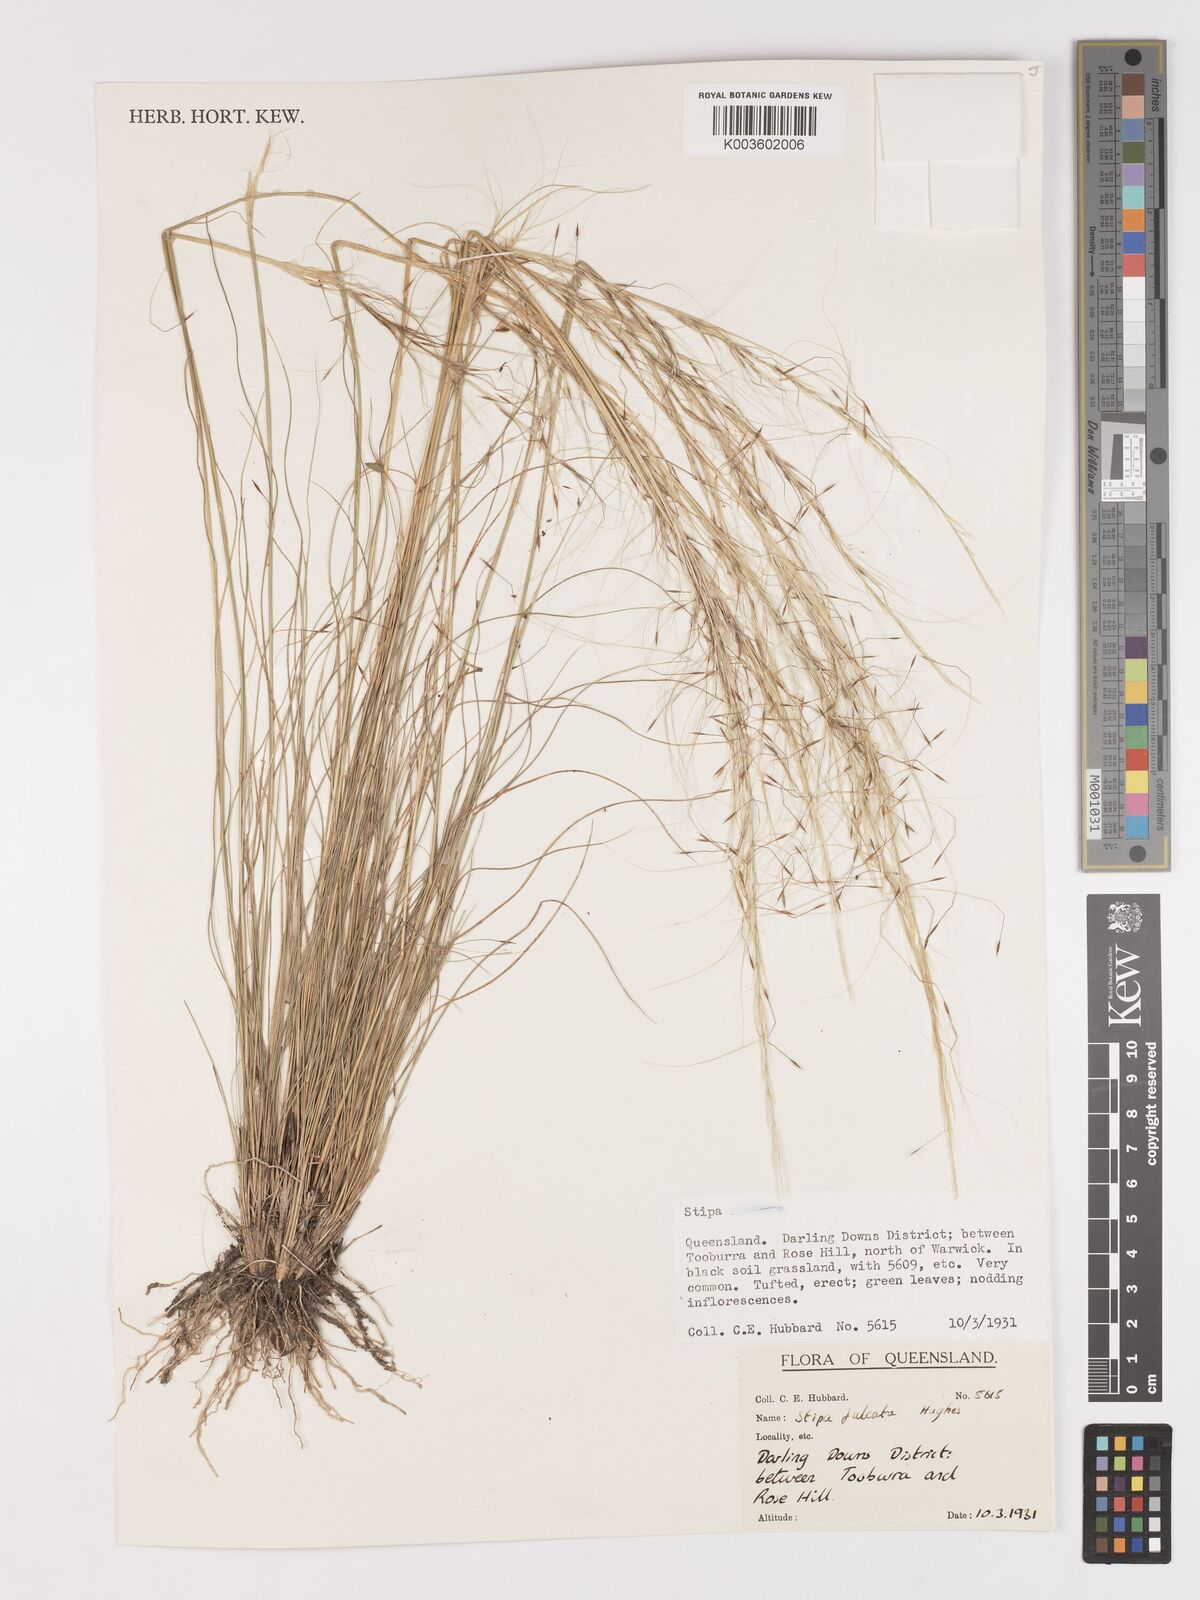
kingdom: Plantae
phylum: Tracheophyta
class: Liliopsida
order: Poales
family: Poaceae
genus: Austrostipa
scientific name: Austrostipa scabra
